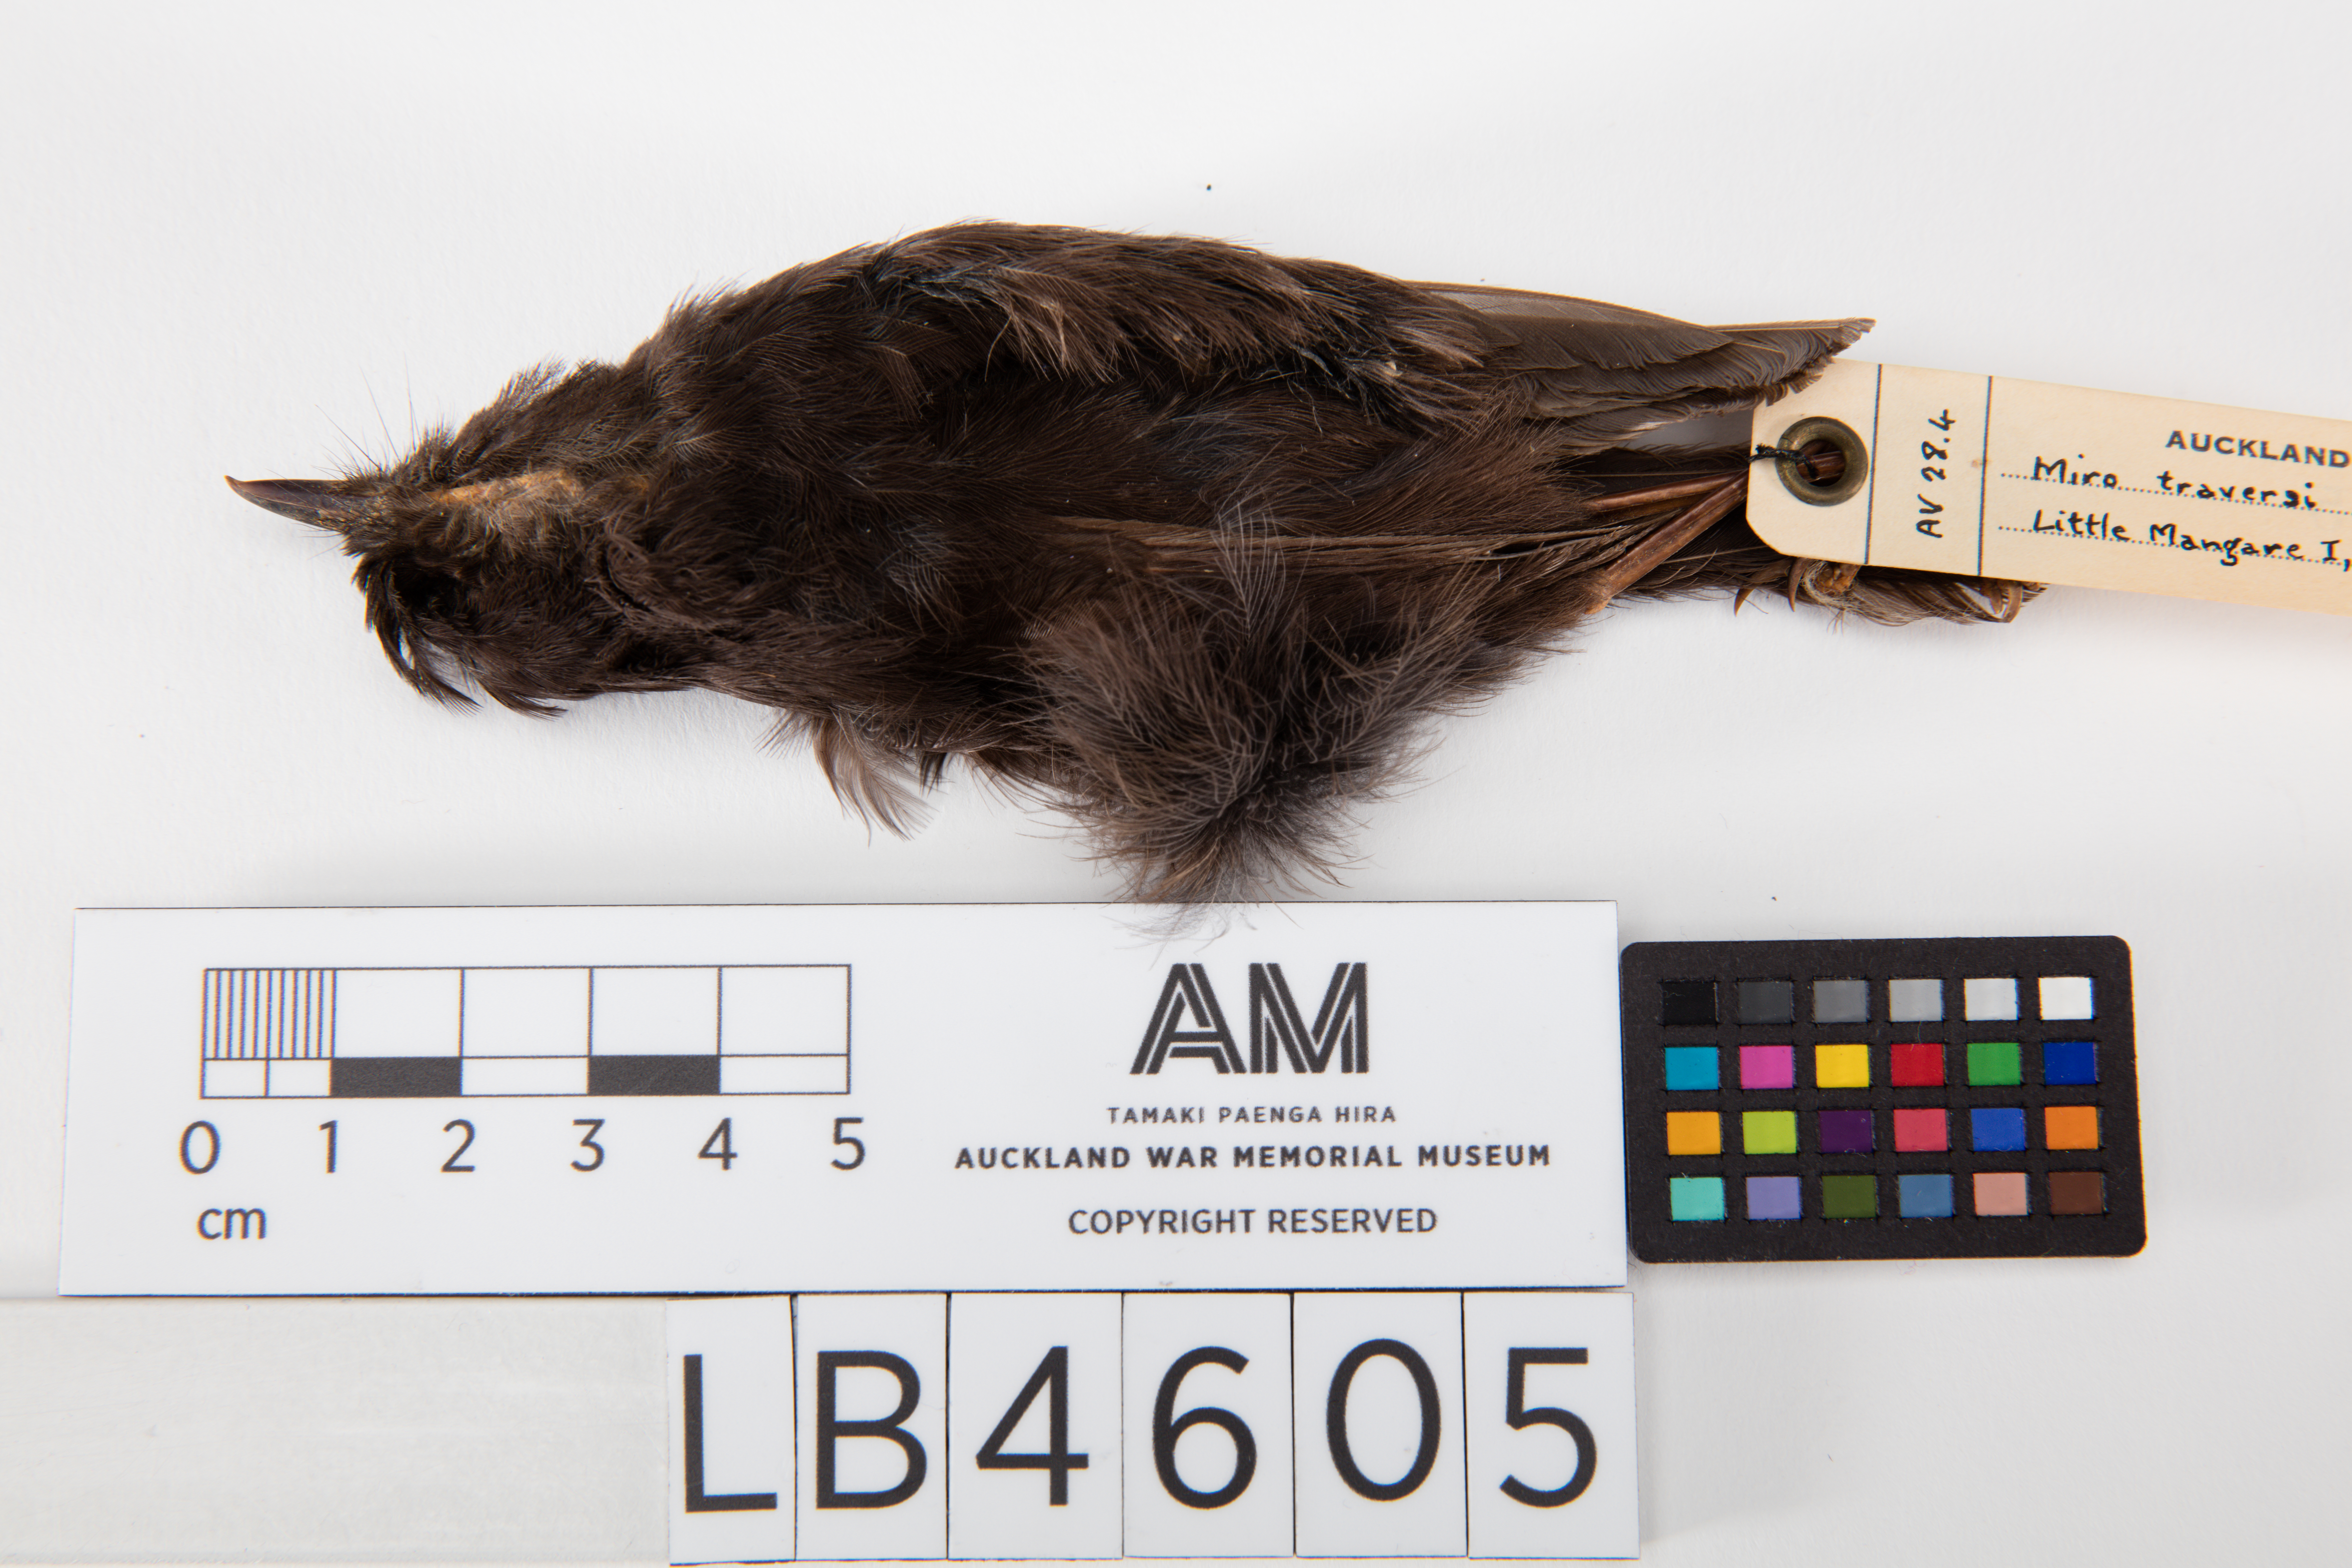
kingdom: Animalia
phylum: Chordata
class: Aves
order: Passeriformes
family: Petroicidae
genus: Petroica
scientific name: Petroica traversi
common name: Black robin
